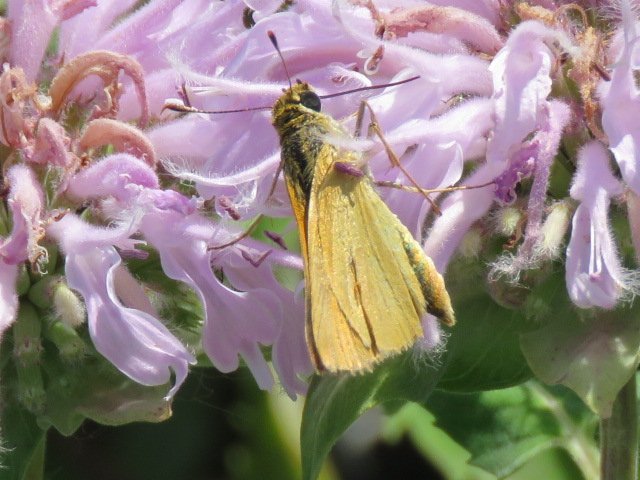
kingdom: Animalia
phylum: Arthropoda
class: Insecta
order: Lepidoptera
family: Hesperiidae
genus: Atrytone
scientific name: Atrytone delaware
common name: Delaware Skipper
